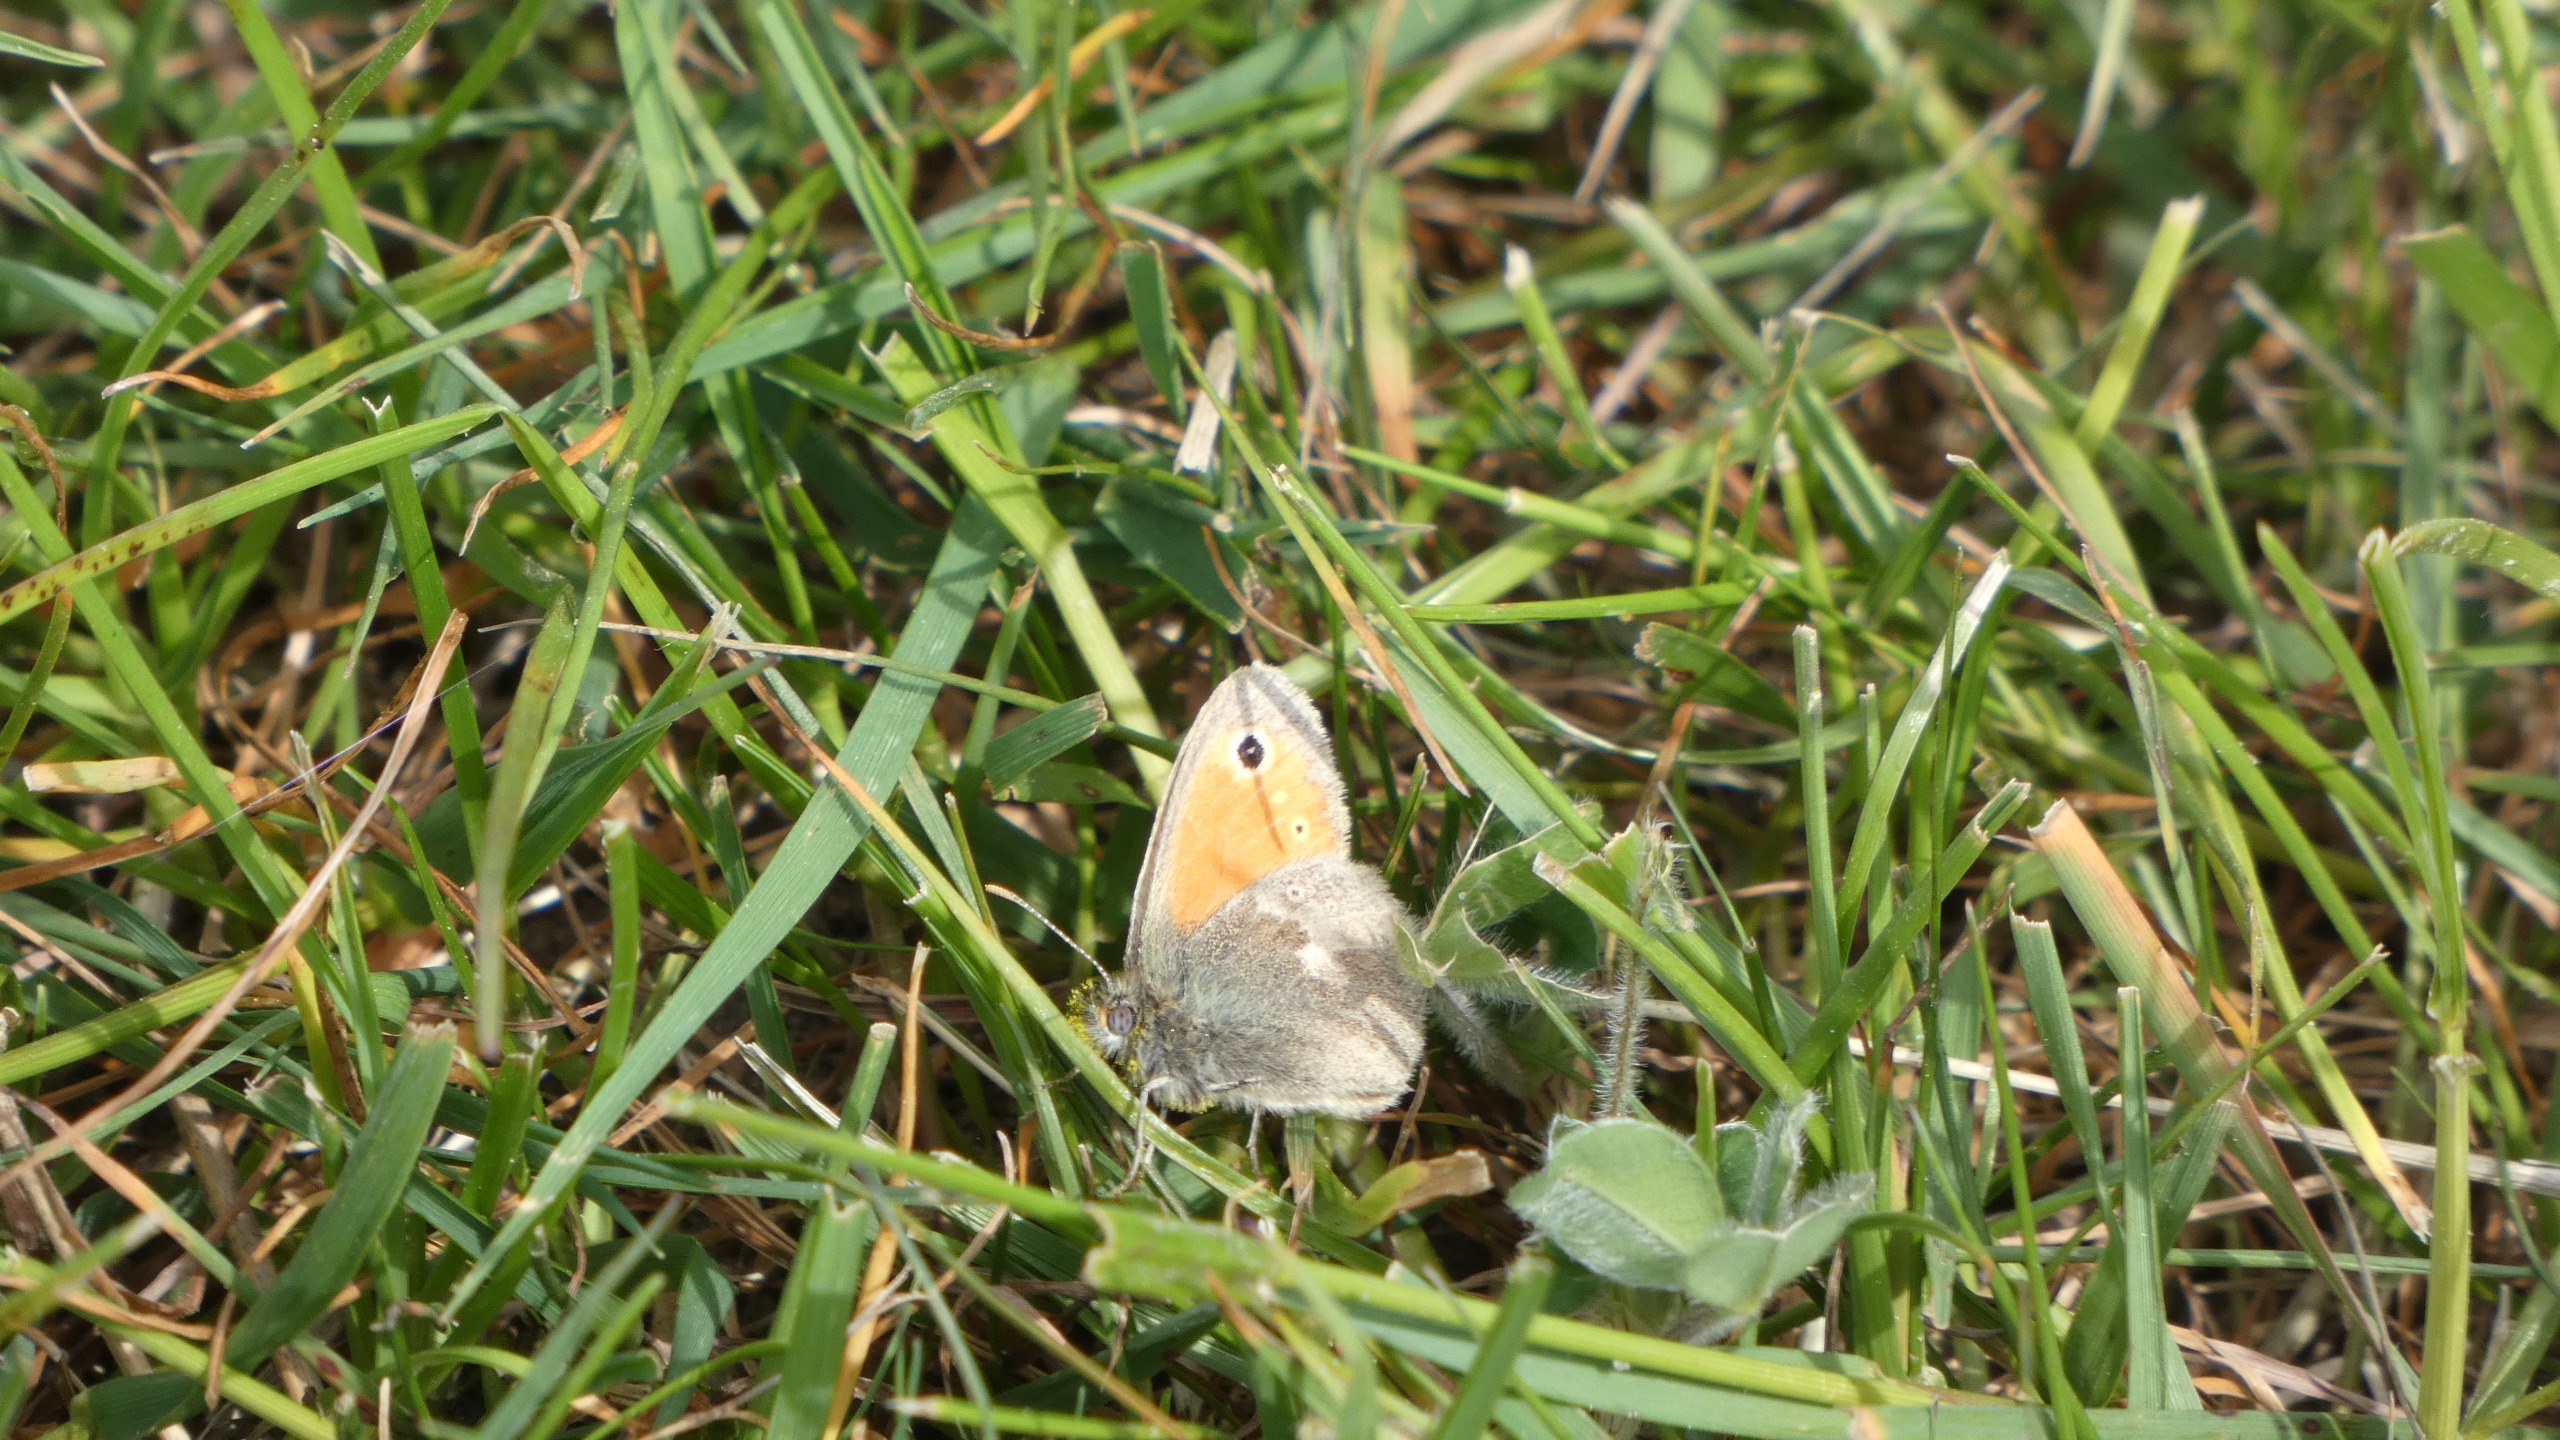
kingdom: Animalia
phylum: Arthropoda
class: Insecta
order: Lepidoptera
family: Nymphalidae
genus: Coenonympha
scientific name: Coenonympha pamphilus
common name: Okkergul randøje
